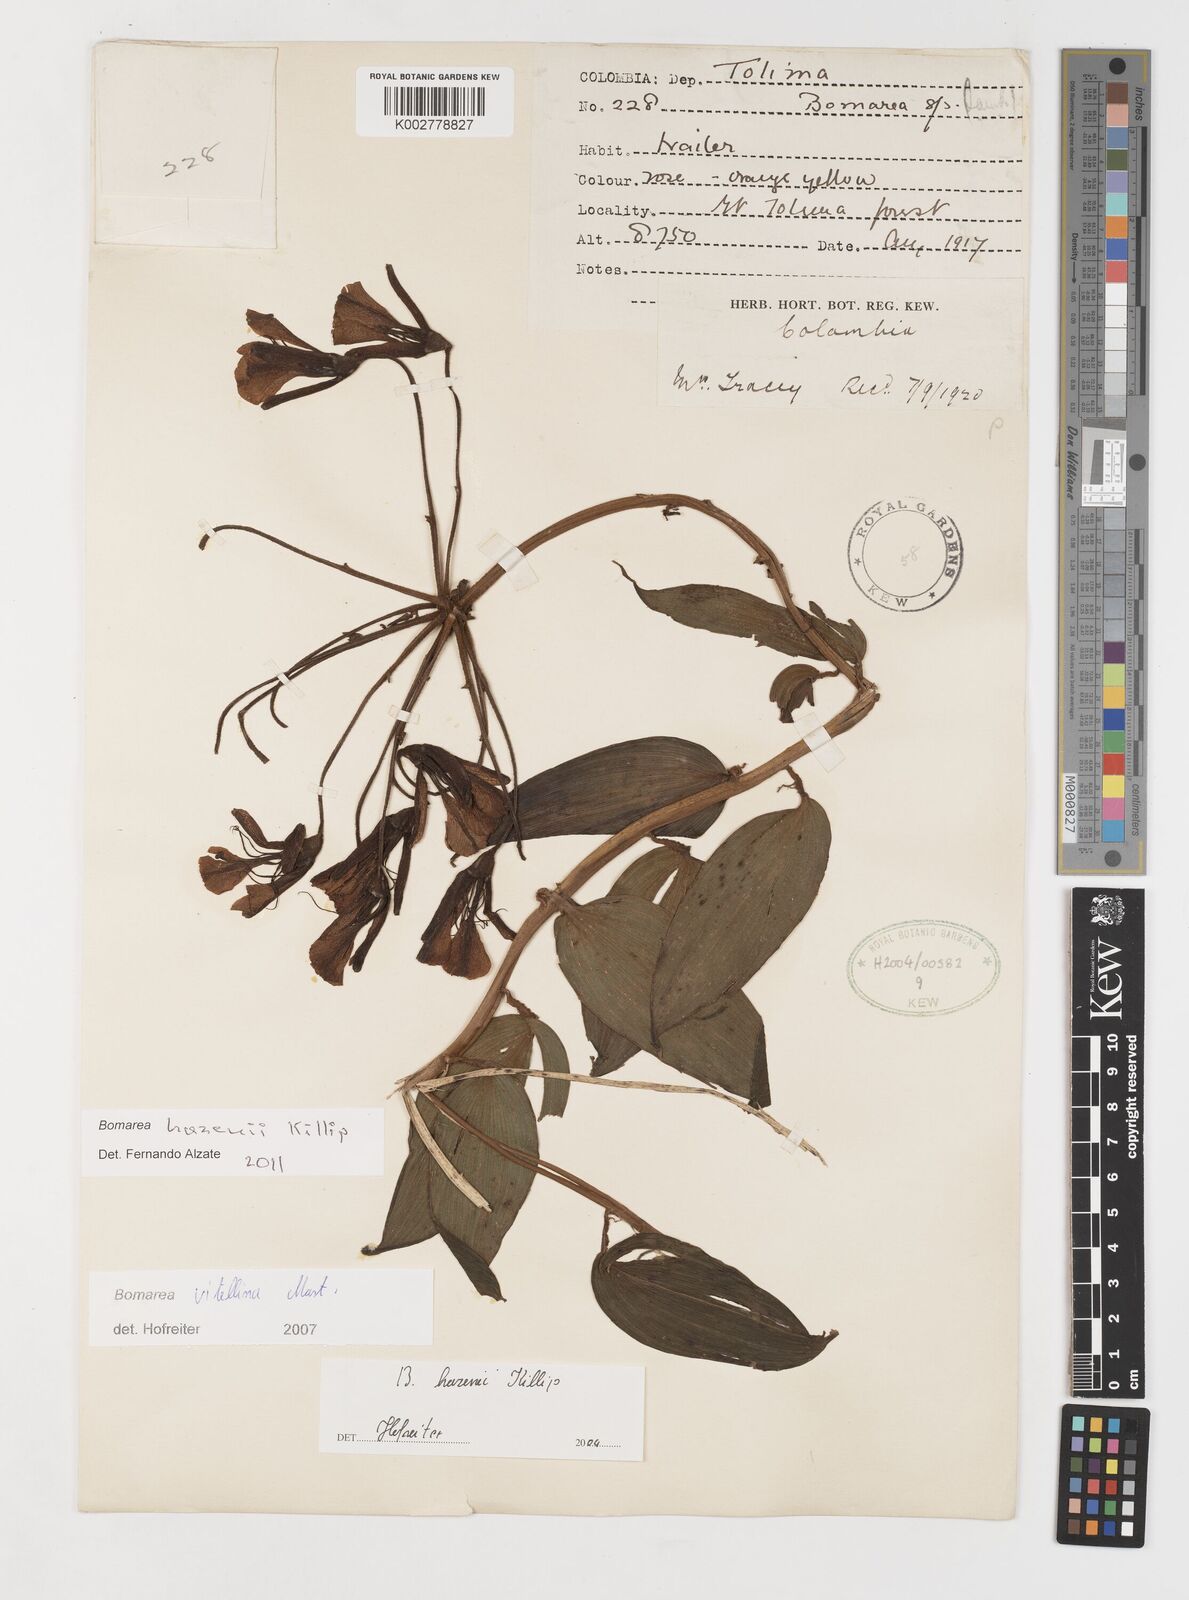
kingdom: Plantae
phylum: Tracheophyta
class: Liliopsida
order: Liliales
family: Alstroemeriaceae
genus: Bomarea
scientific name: Bomarea vitellina
